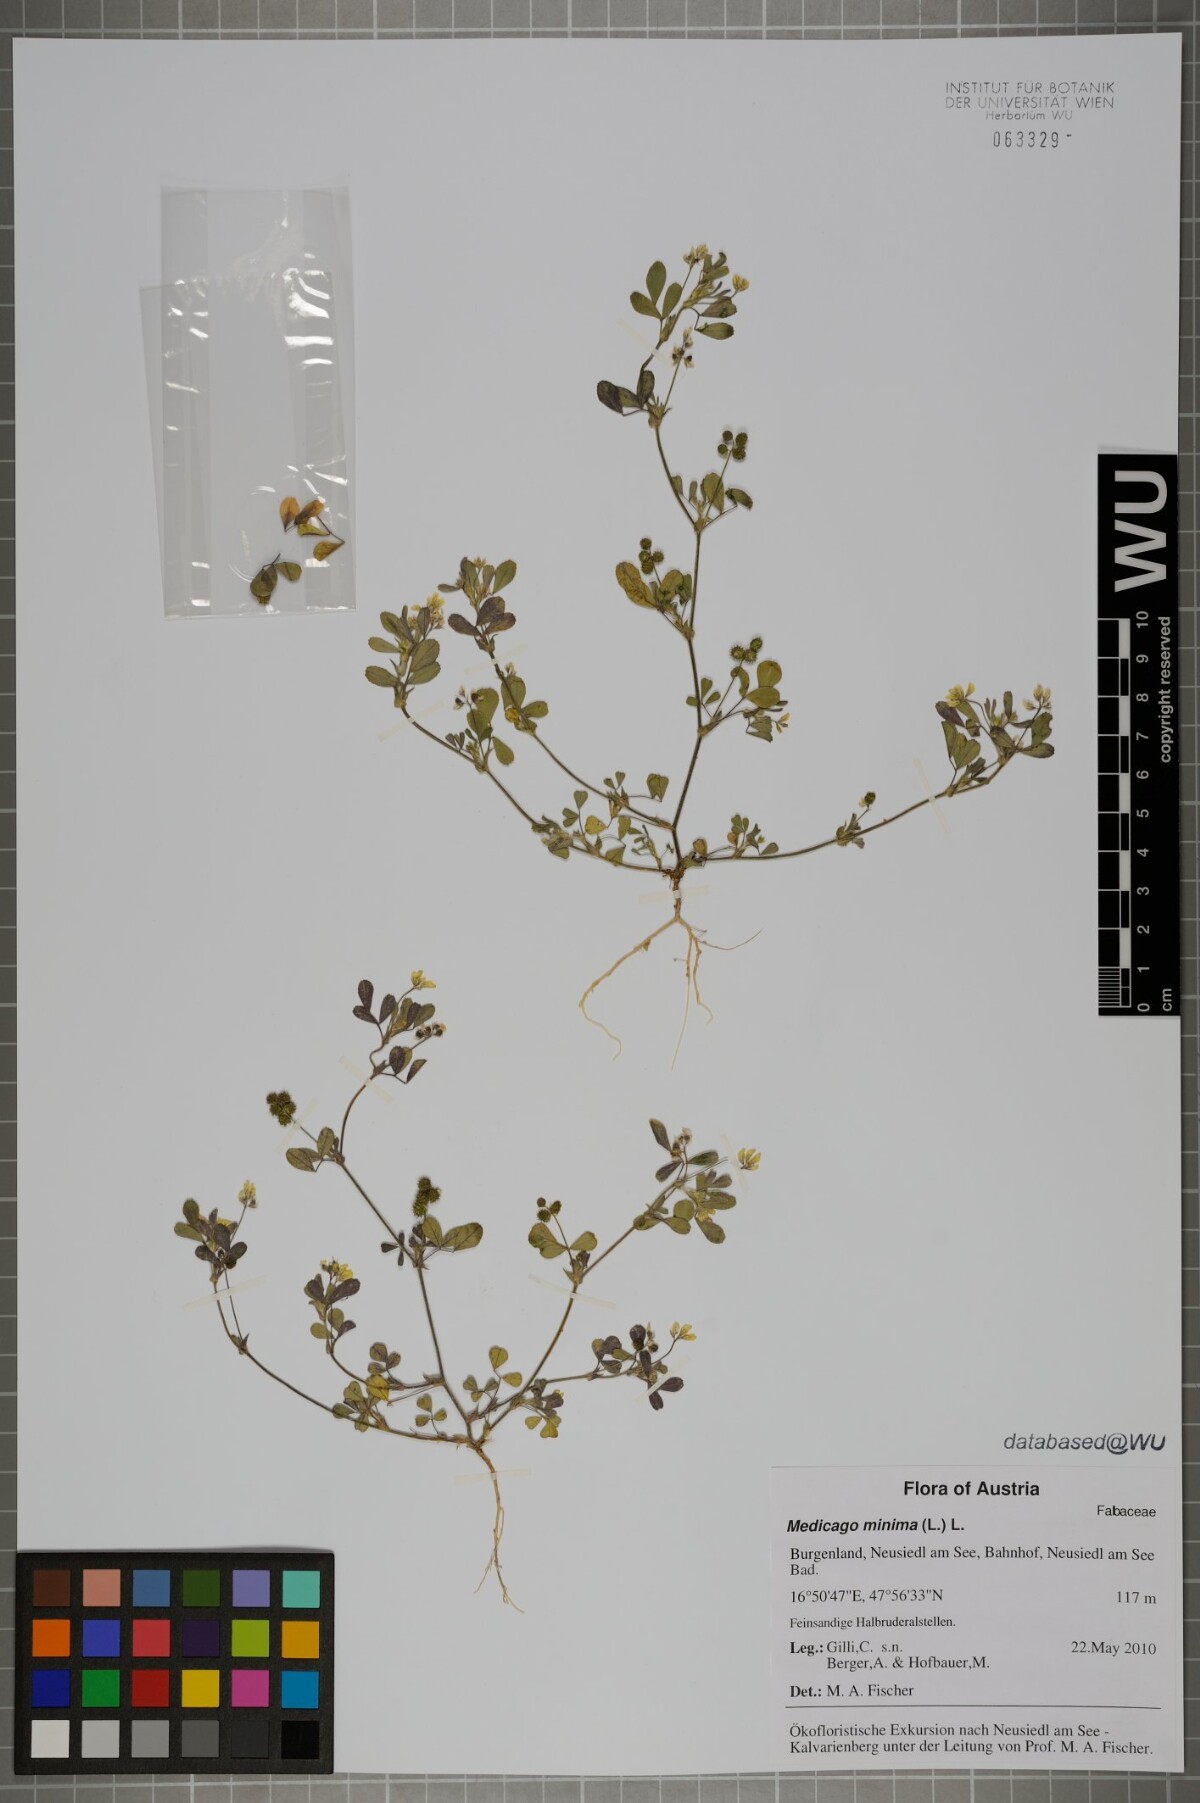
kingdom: Plantae
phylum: Tracheophyta
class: Magnoliopsida
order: Fabales
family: Fabaceae
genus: Medicago
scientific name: Medicago minima
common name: Little bur-clover
